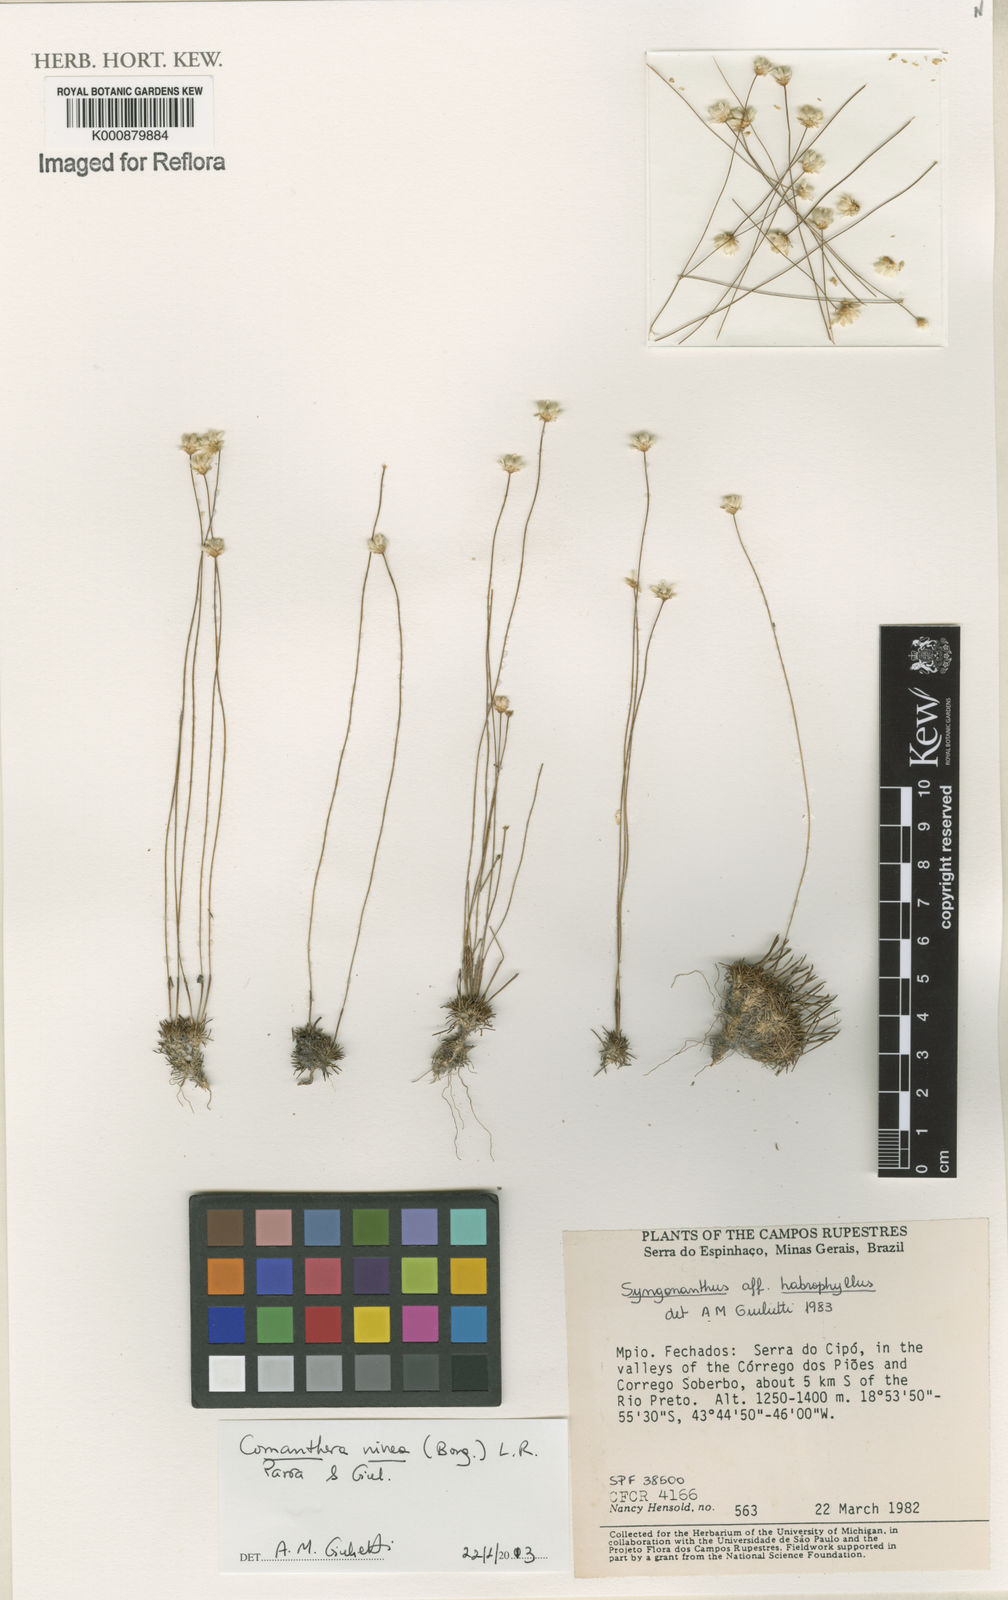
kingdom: Plantae
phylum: Tracheophyta
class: Liliopsida
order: Poales
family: Eriocaulaceae
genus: Comanthera
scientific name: Comanthera nivea
